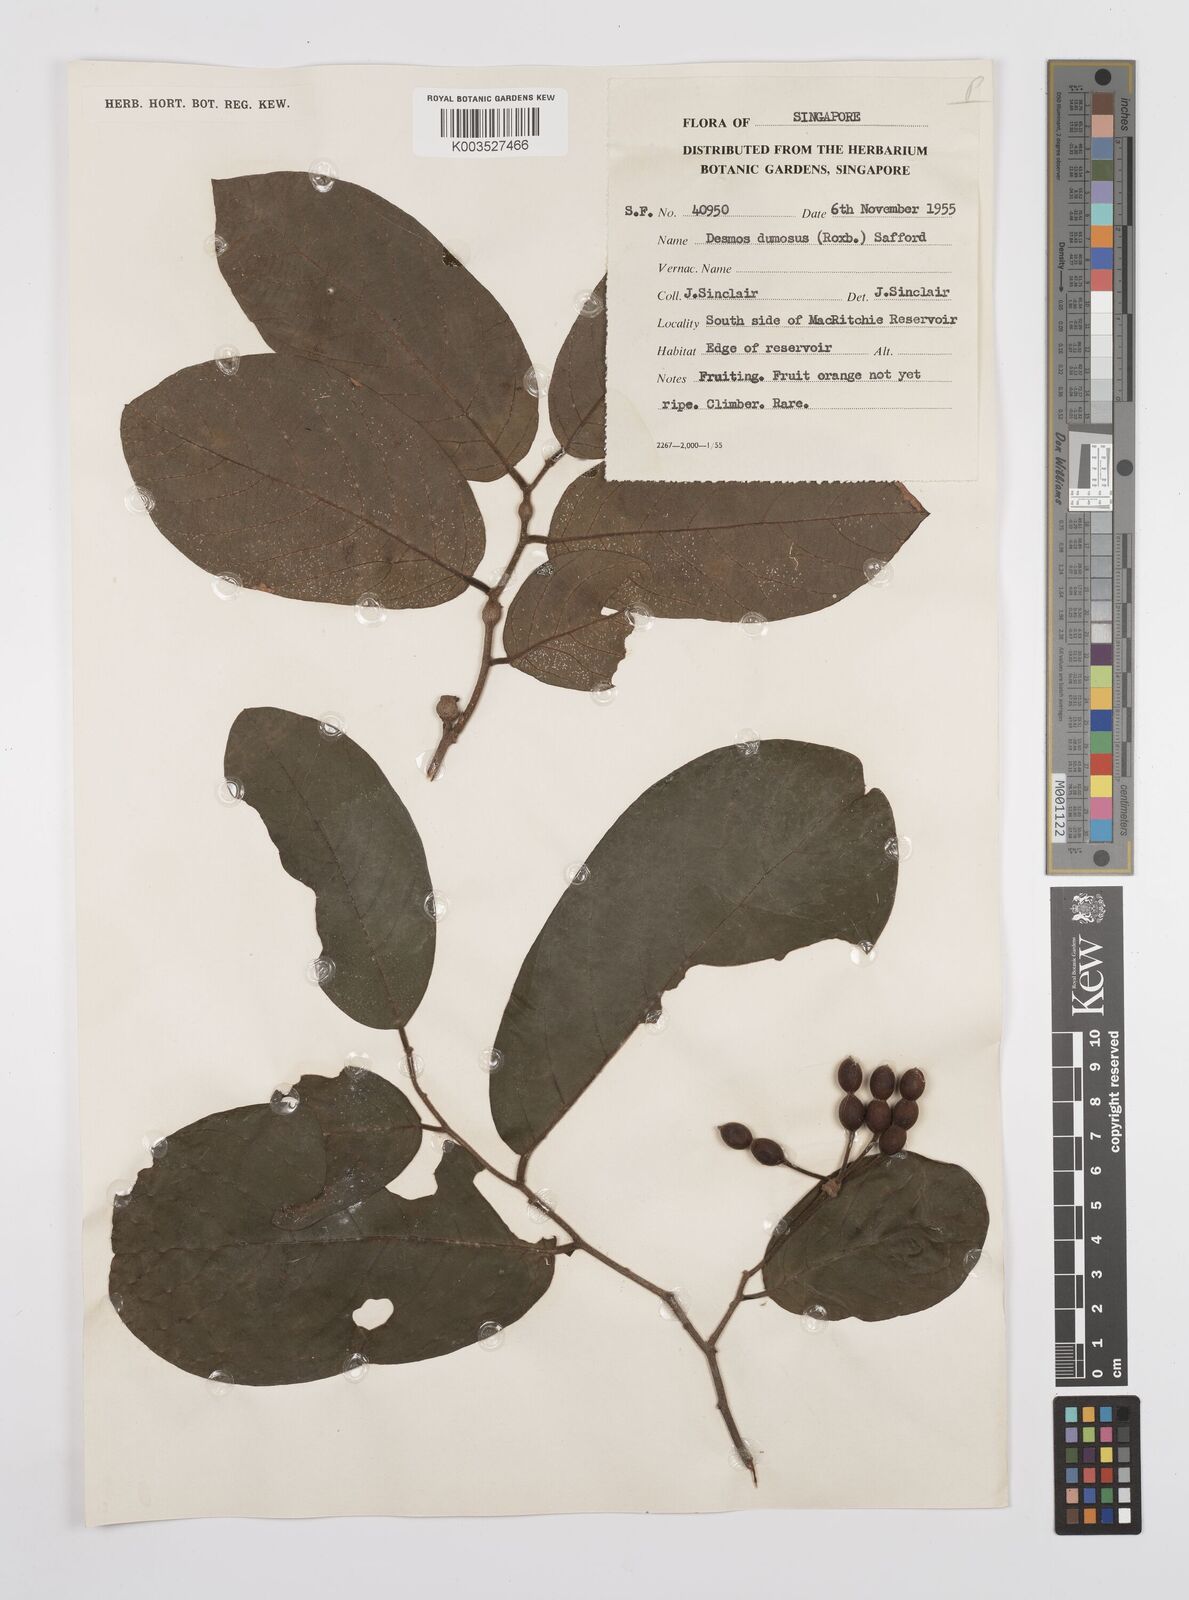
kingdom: Plantae
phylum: Tracheophyta
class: Magnoliopsida
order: Magnoliales
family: Annonaceae
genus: Desmos
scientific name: Desmos dumosus
